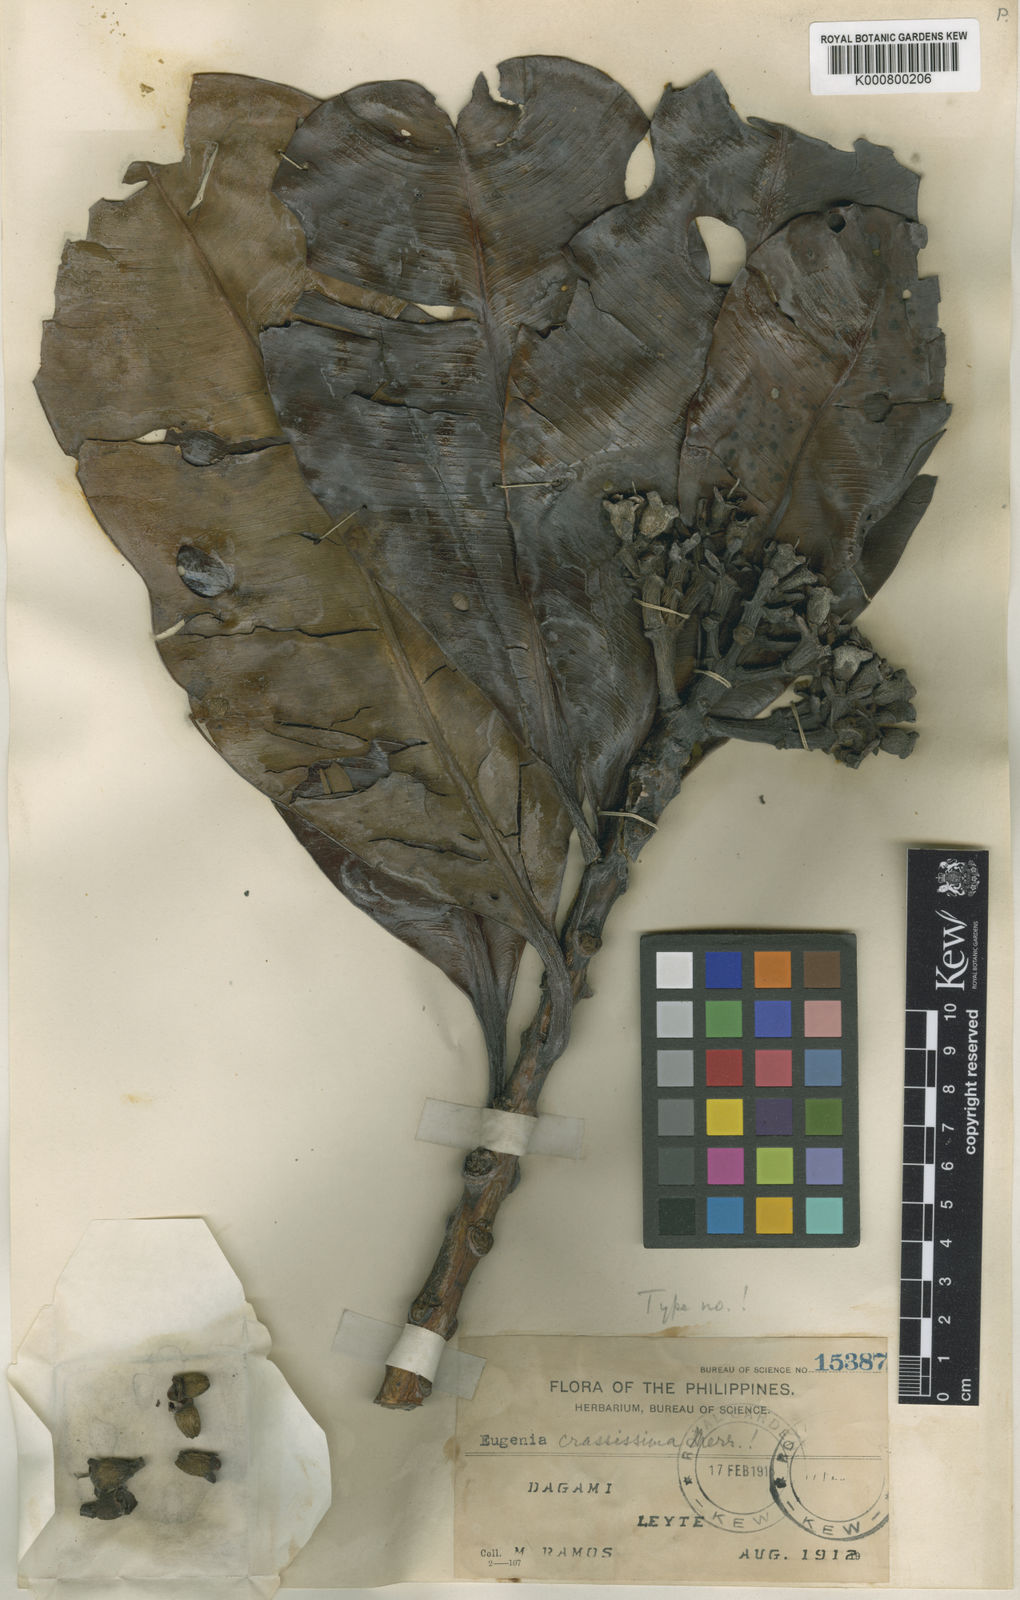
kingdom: Plantae
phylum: Tracheophyta
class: Magnoliopsida
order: Myrtales
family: Myrtaceae
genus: Syzygium
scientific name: Syzygium crassissimum
